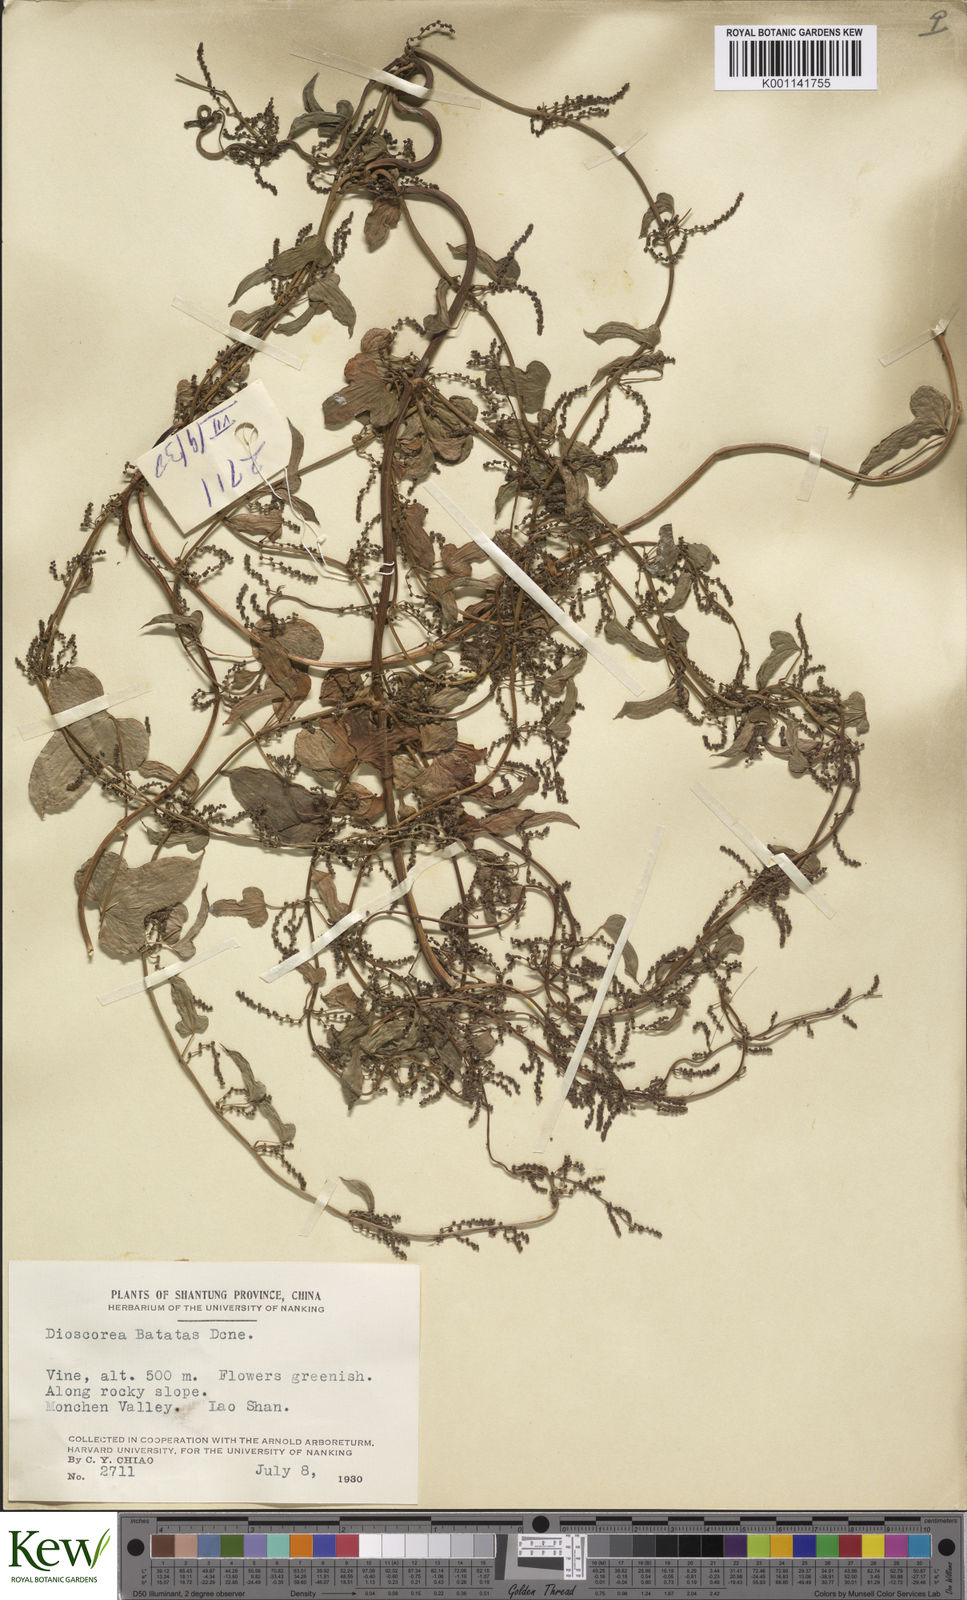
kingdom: Plantae
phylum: Tracheophyta
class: Liliopsida
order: Dioscoreales
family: Dioscoreaceae
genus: Dioscorea
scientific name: Dioscorea oppositifolia
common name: Chinese yam
